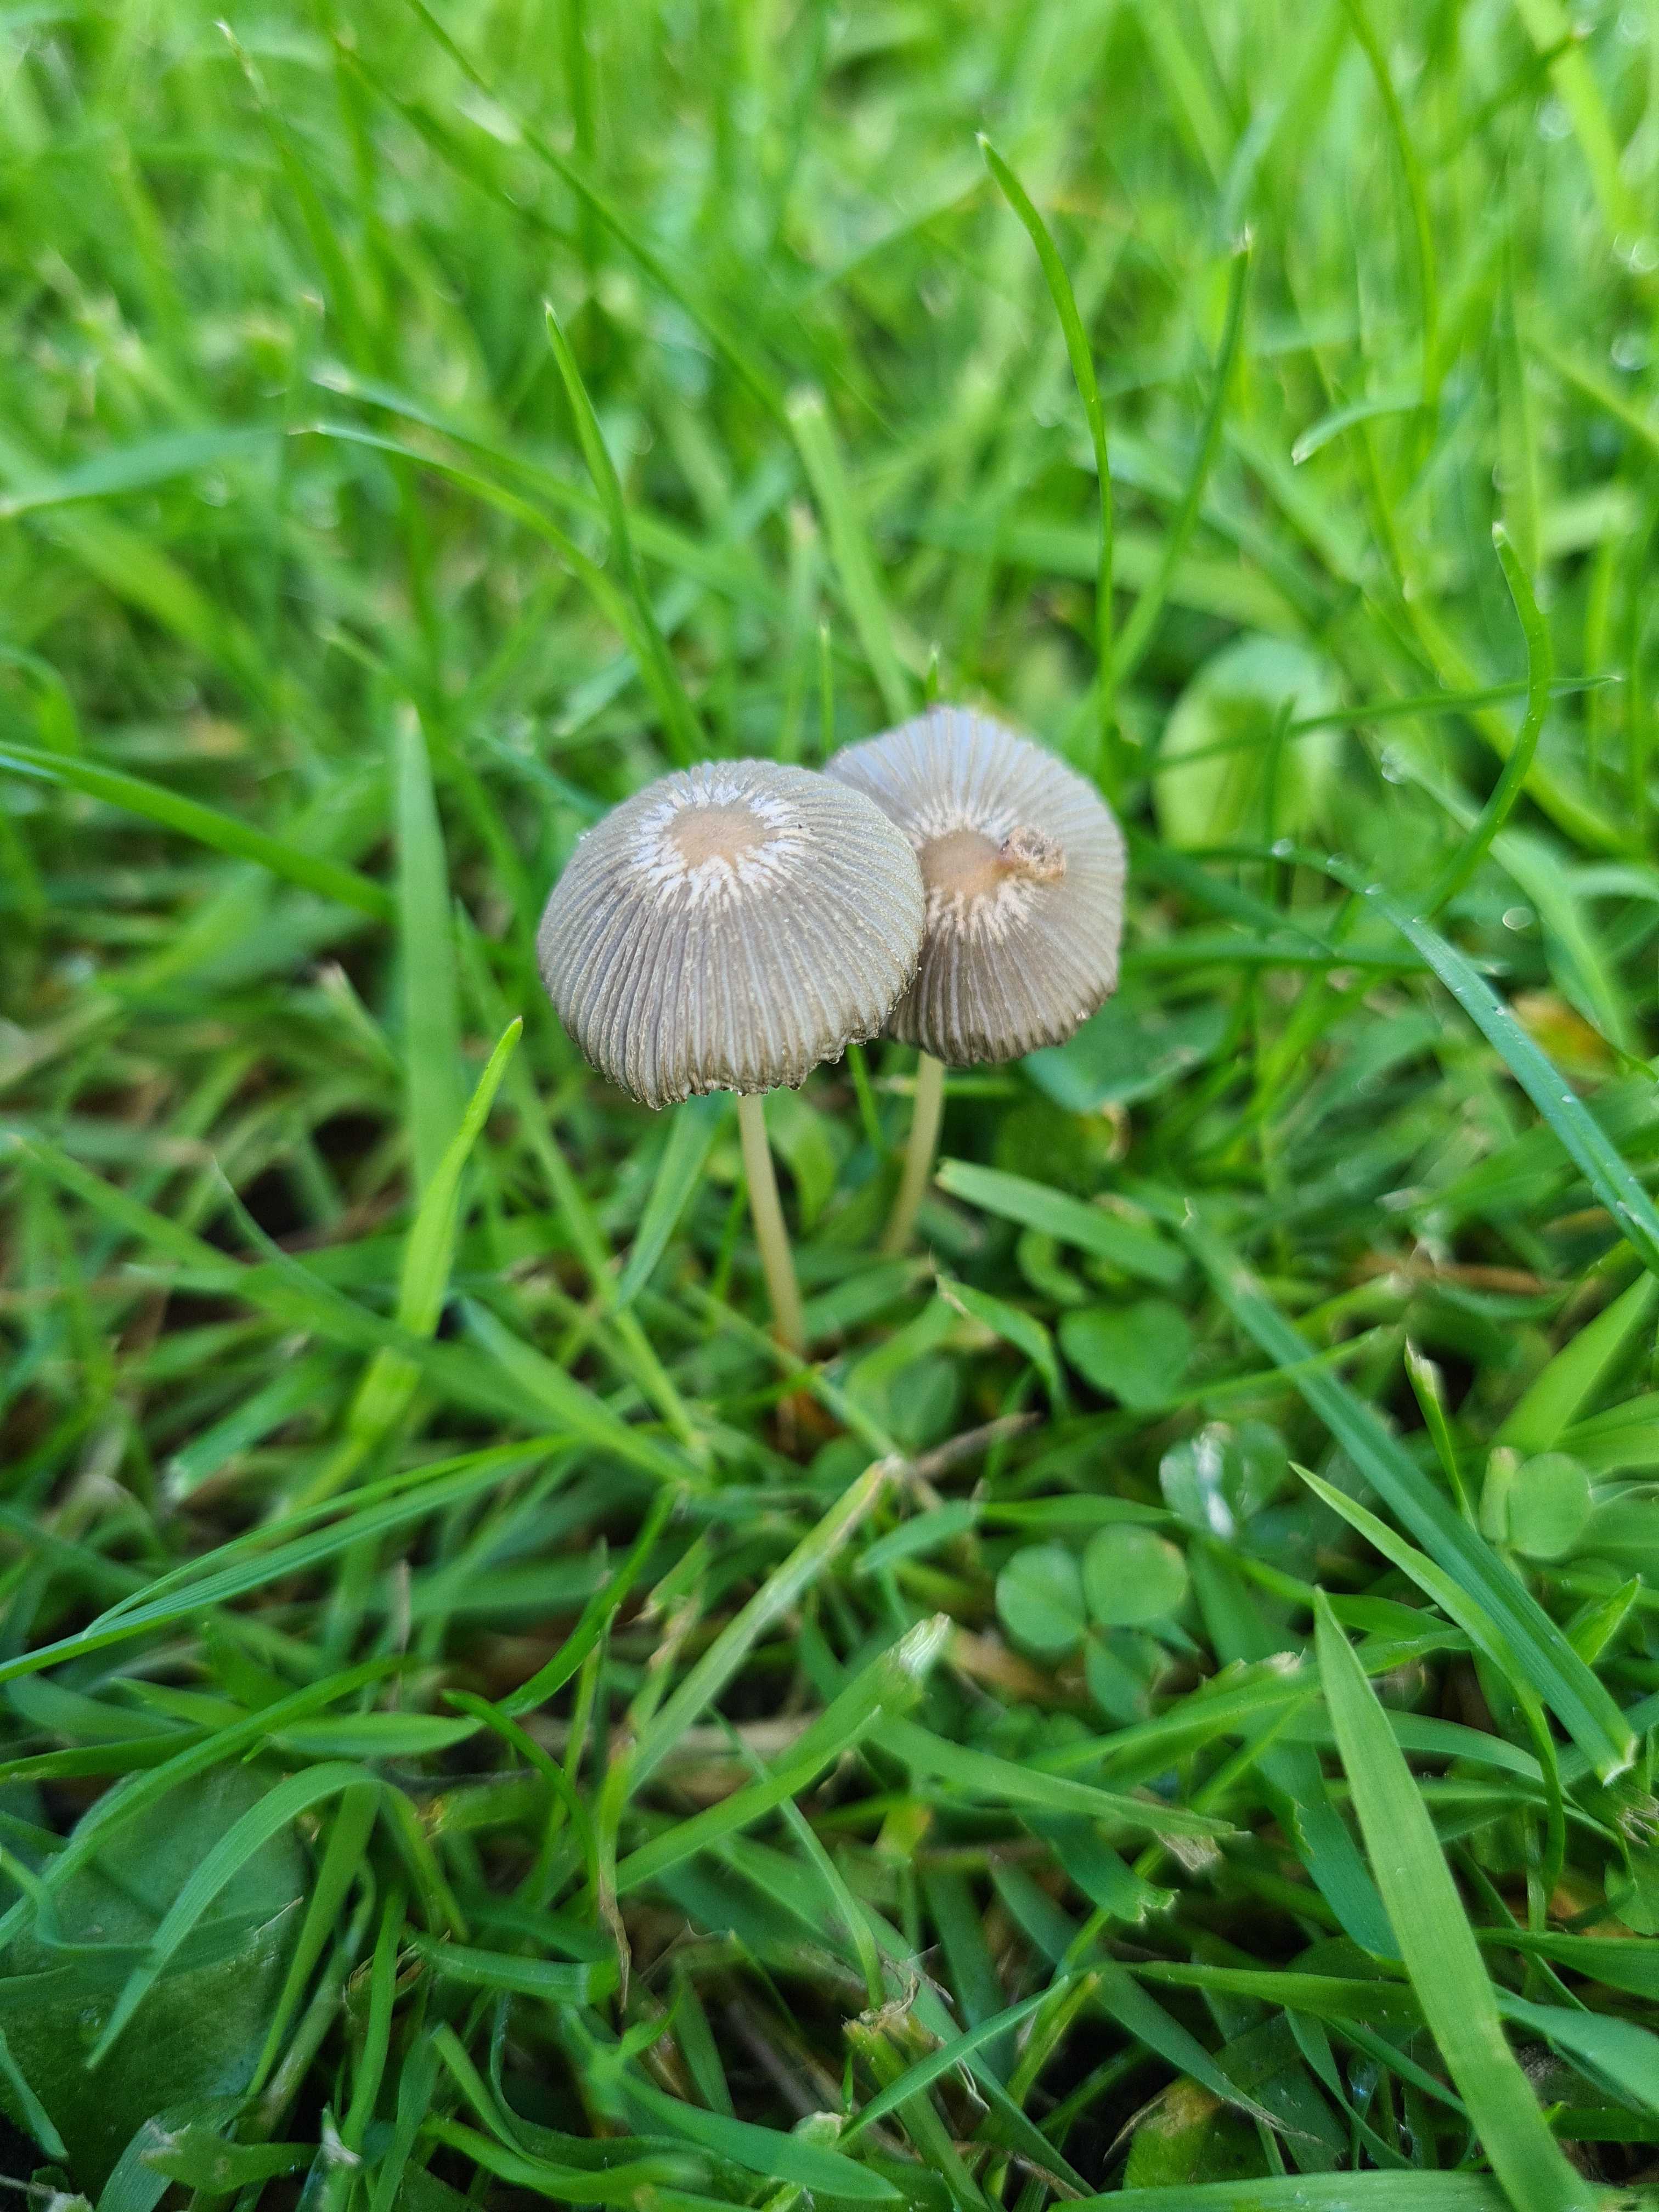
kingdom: Fungi
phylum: Basidiomycota
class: Agaricomycetes
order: Agaricales
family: Psathyrellaceae
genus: Parasola
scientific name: Parasola
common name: hjulhat
